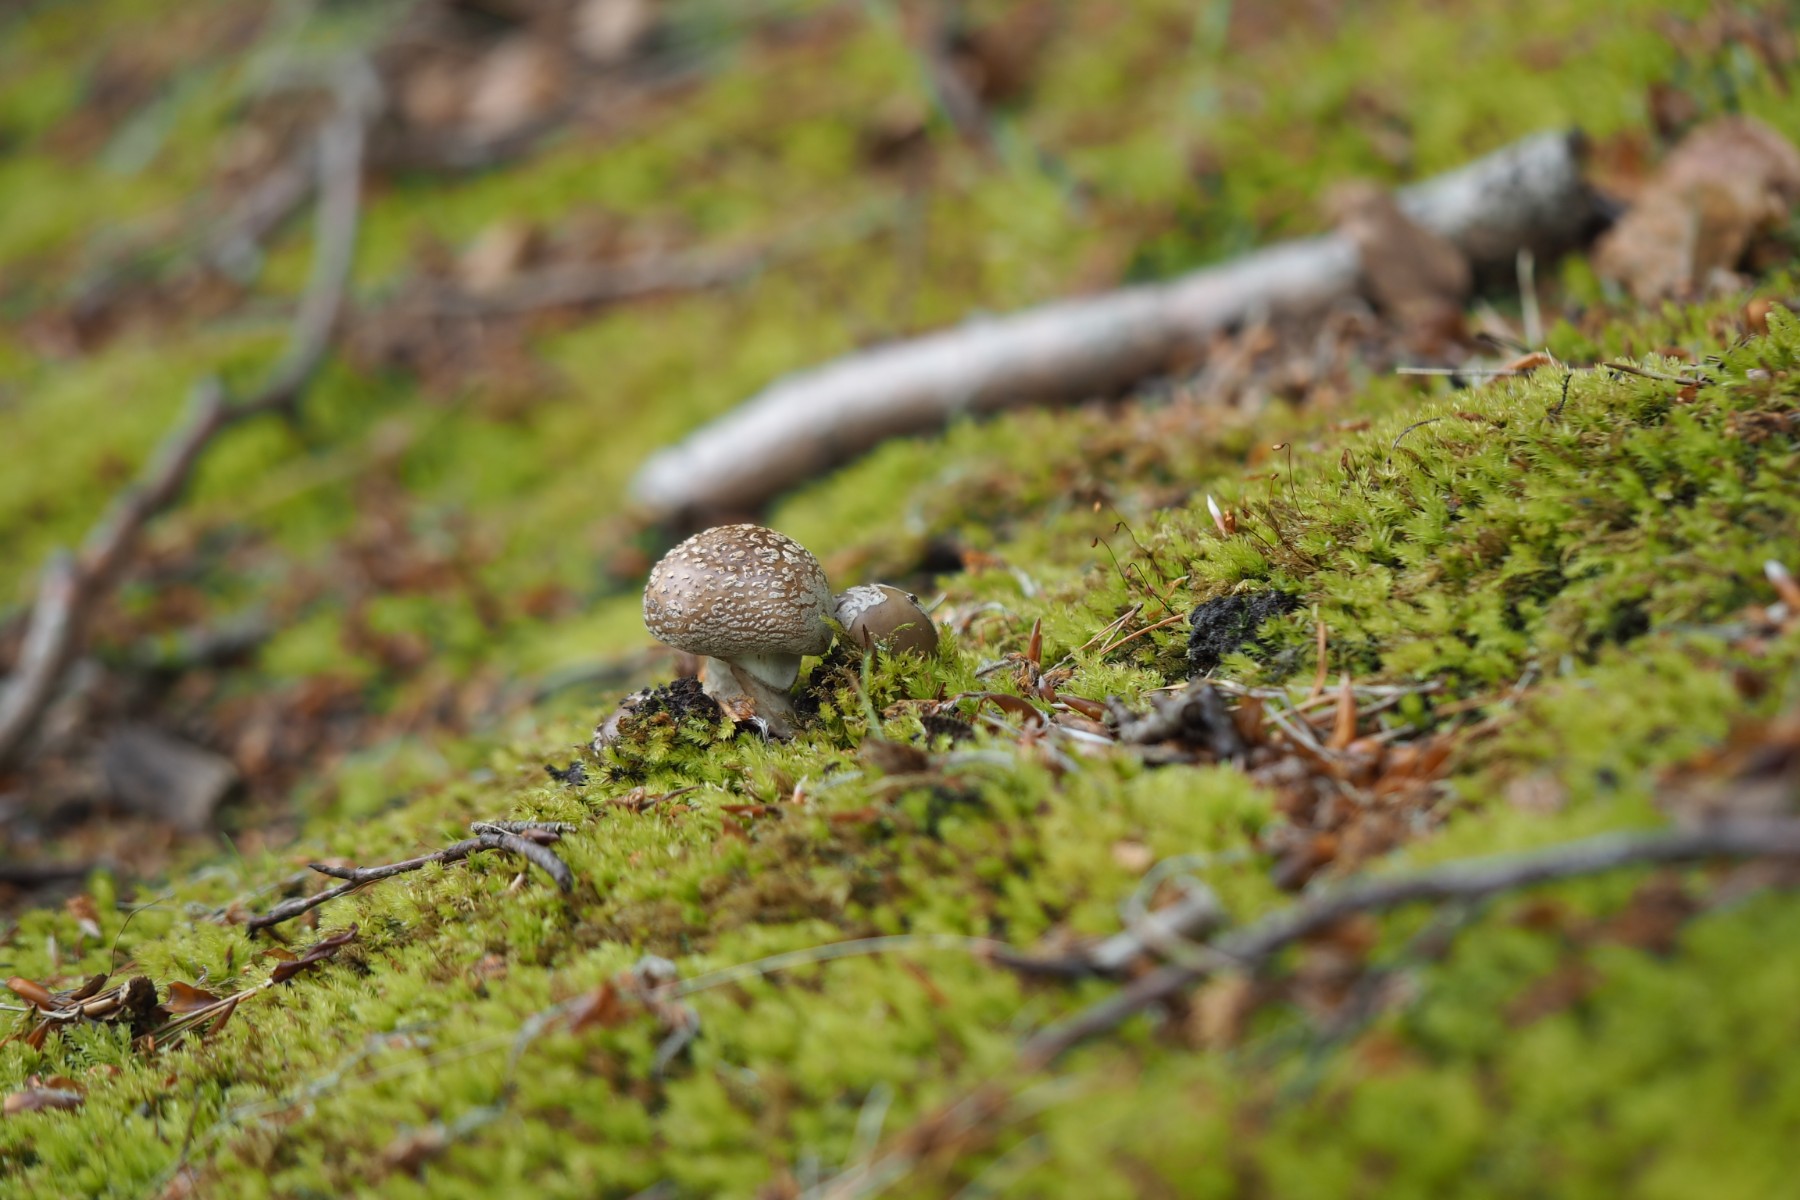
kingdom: Fungi
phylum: Basidiomycota
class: Agaricomycetes
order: Agaricales
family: Amanitaceae
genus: Amanita
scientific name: Amanita pantherina
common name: panter-fluesvamp
